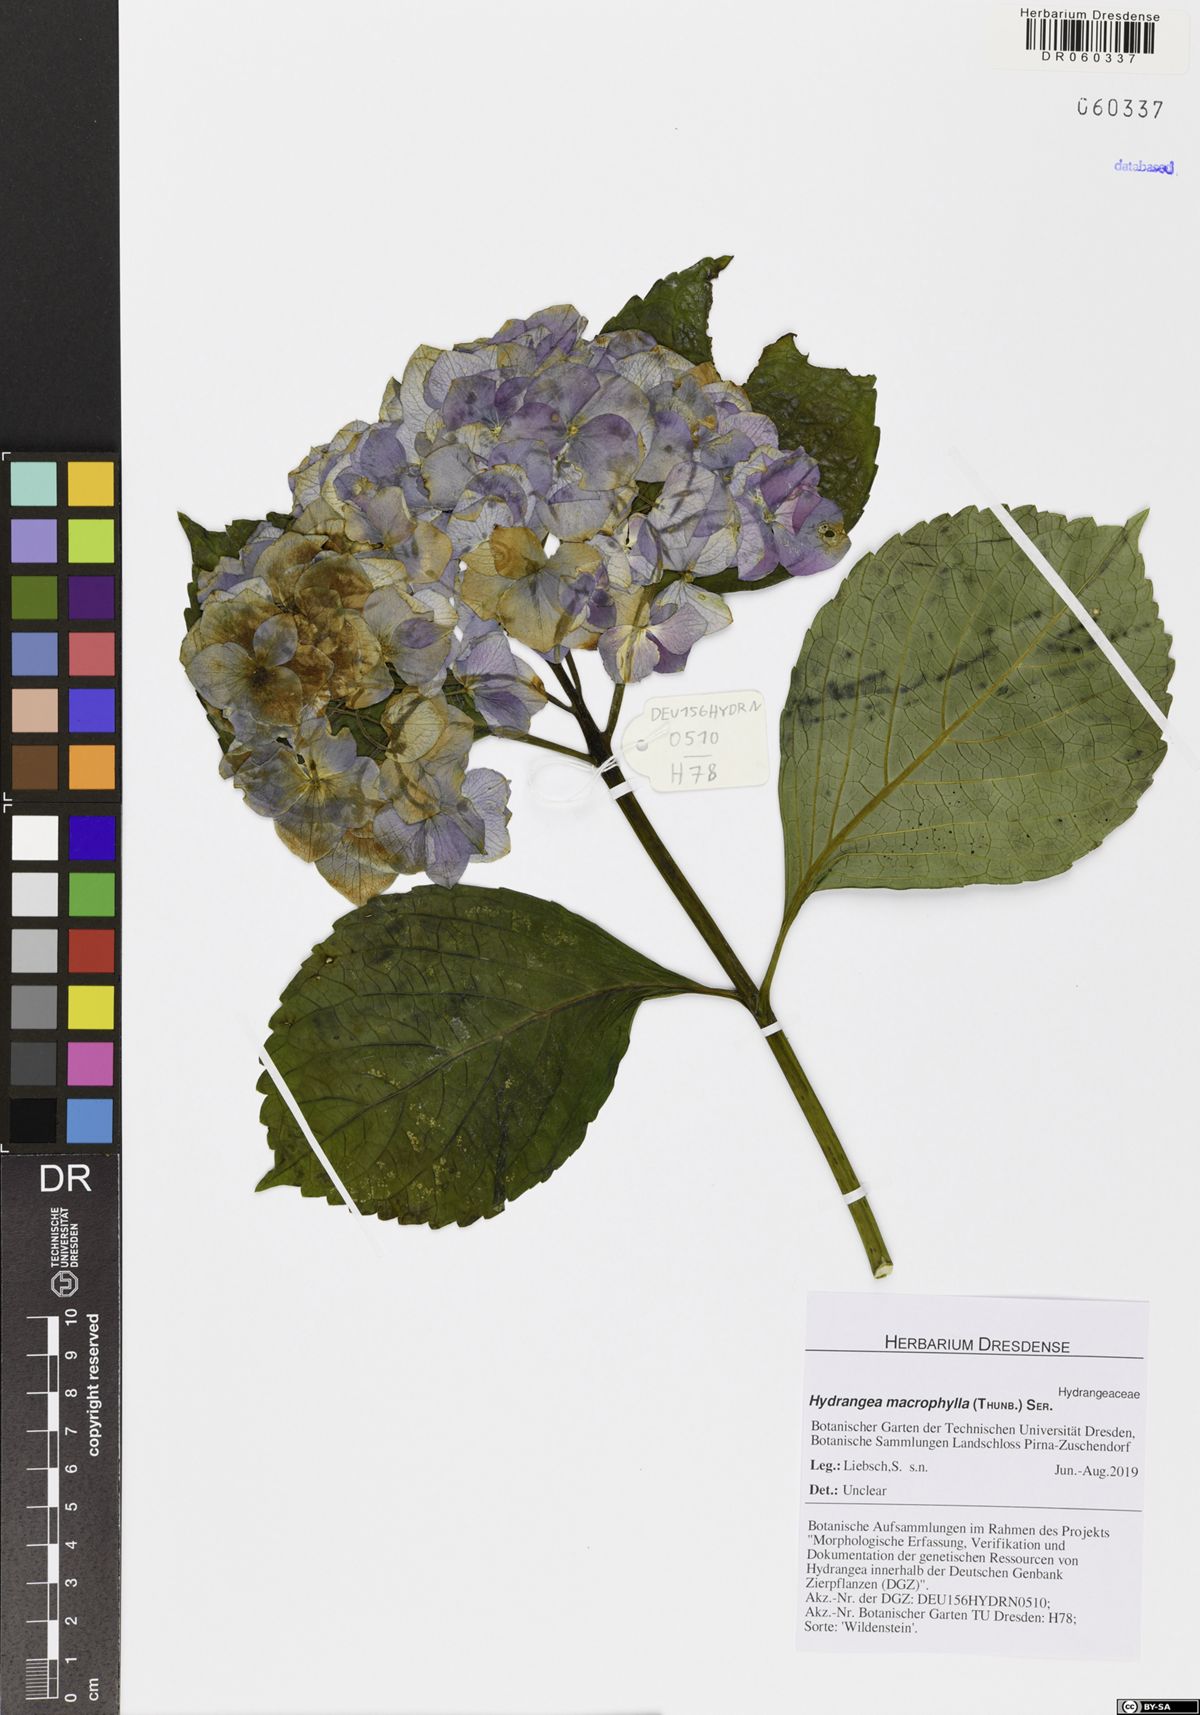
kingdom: Plantae
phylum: Tracheophyta
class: Magnoliopsida
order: Cornales
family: Hydrangeaceae
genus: Hydrangea
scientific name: Hydrangea macrophylla
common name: Hydrangea
